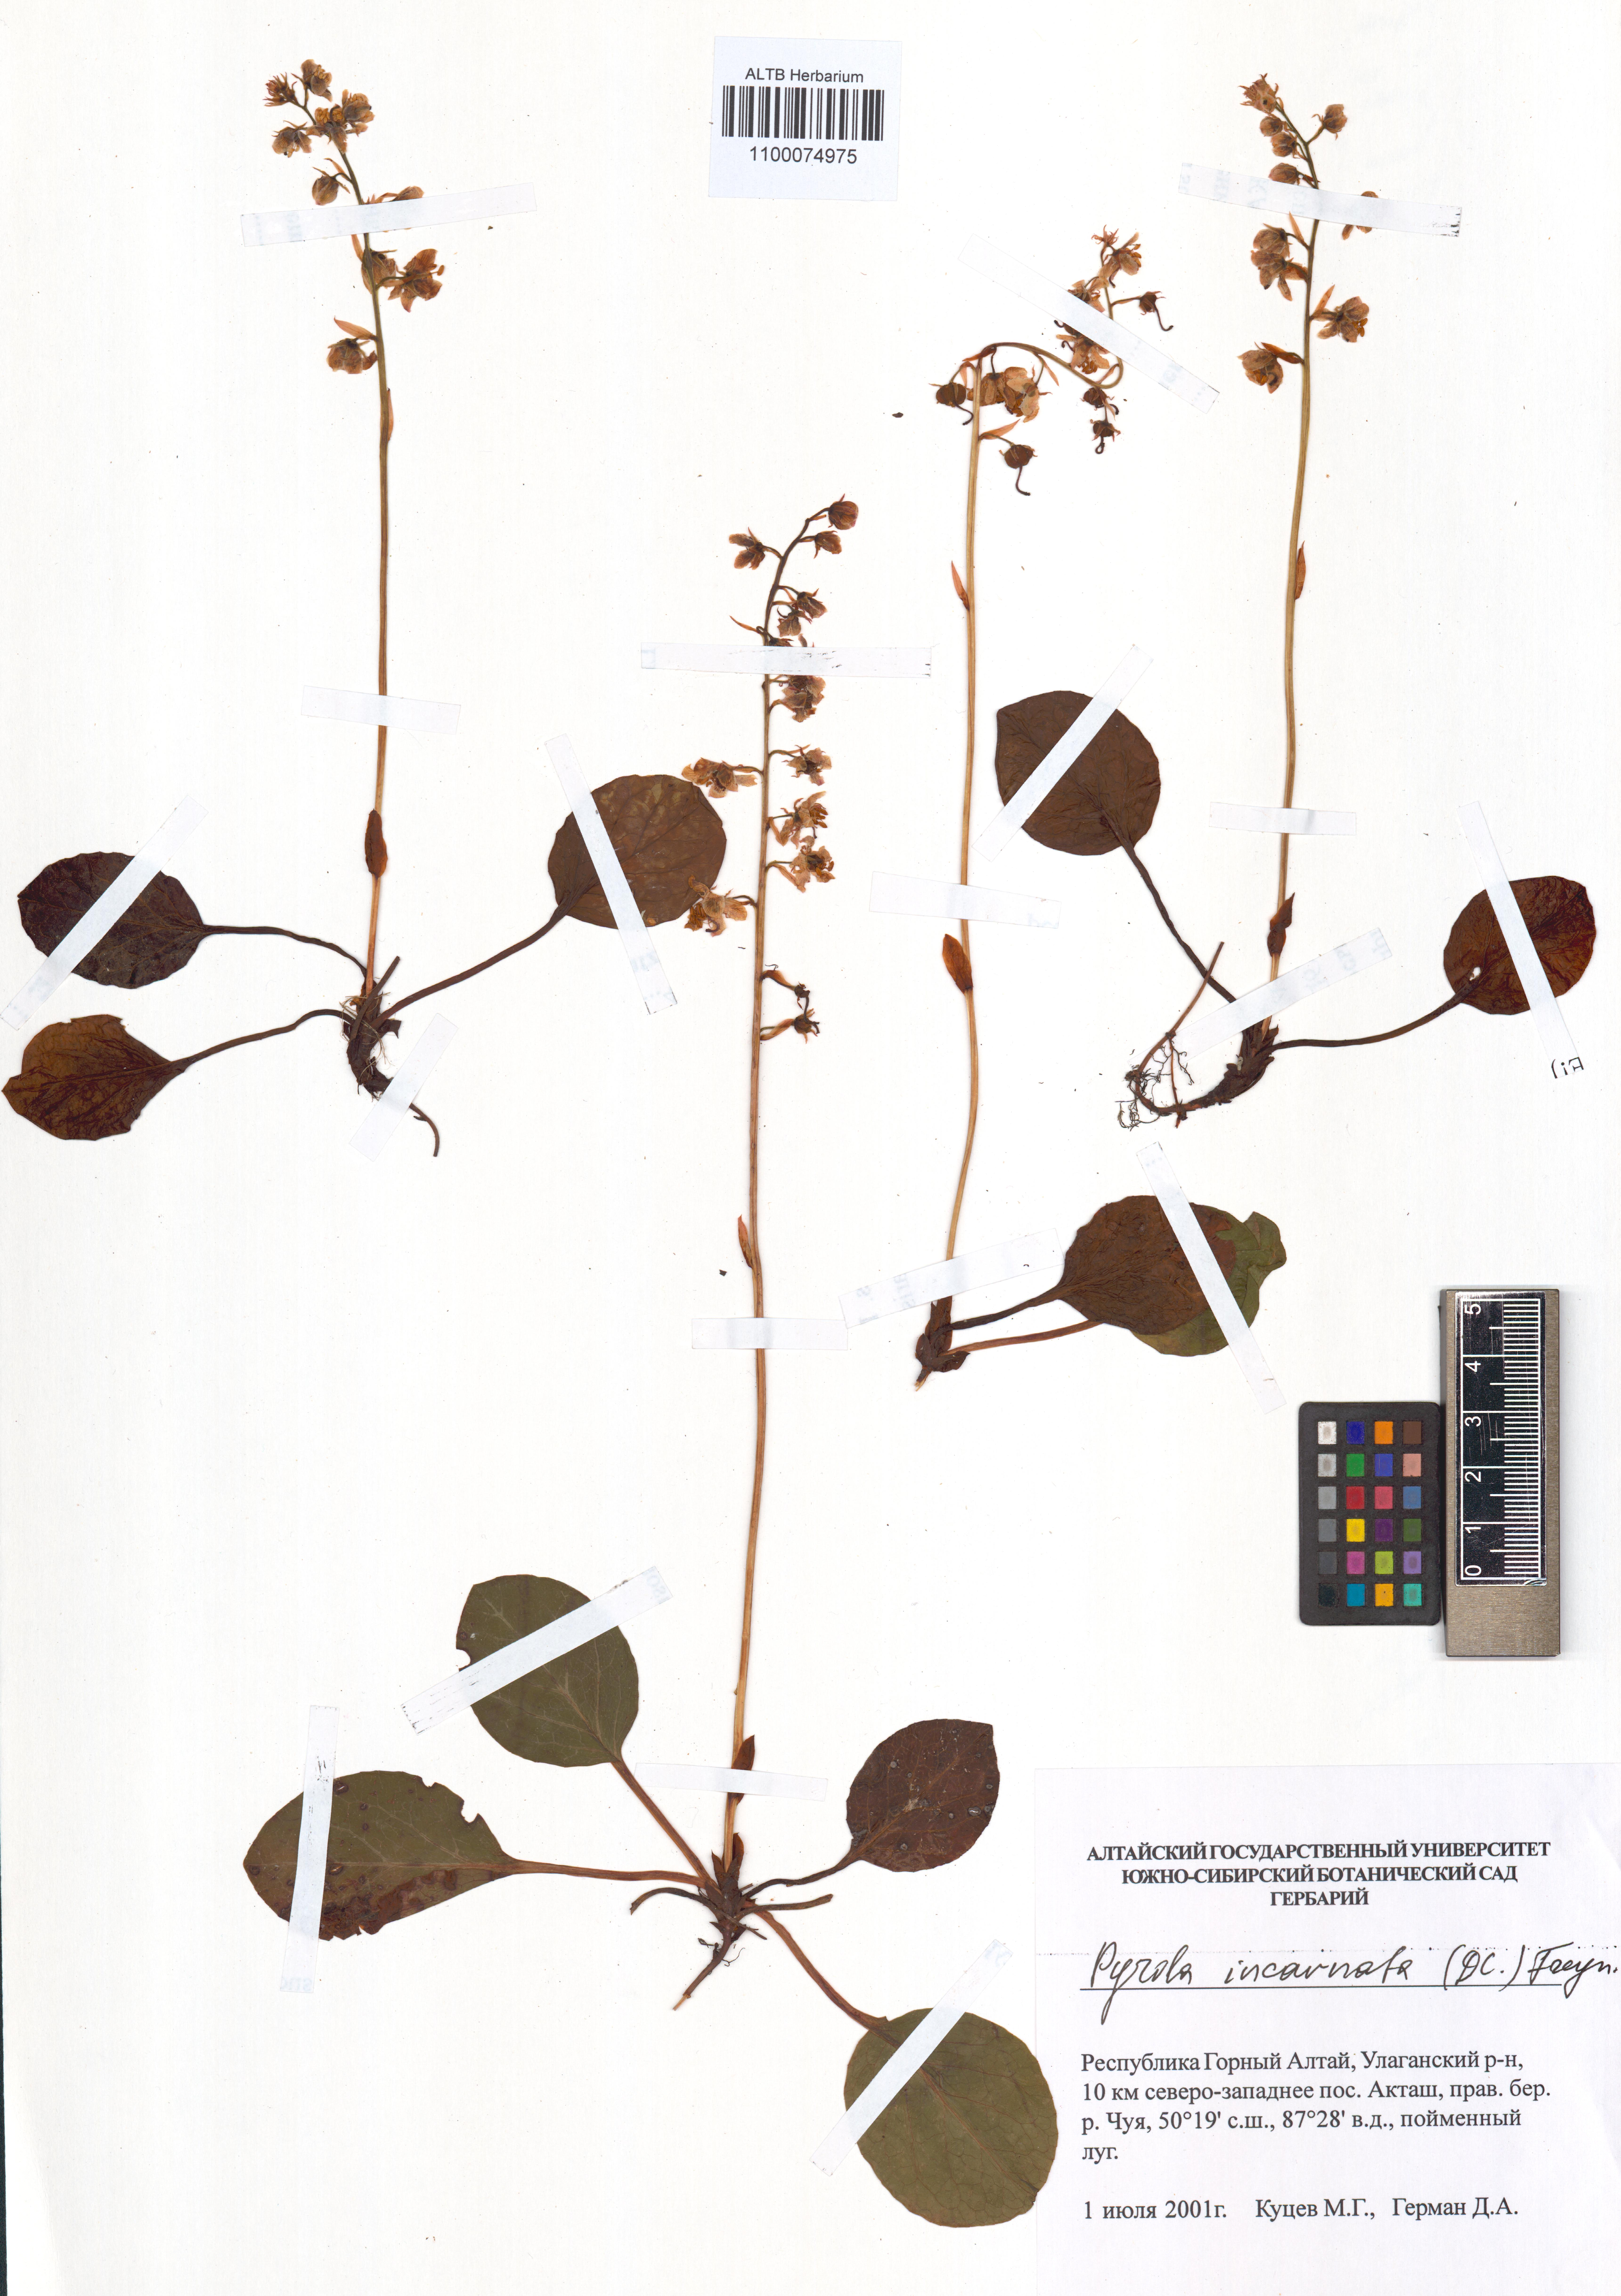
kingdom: Plantae
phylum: Tracheophyta
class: Magnoliopsida
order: Ericales
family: Ericaceae
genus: Pyrola
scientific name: Pyrola asarifolia
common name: Bog wintergreen
